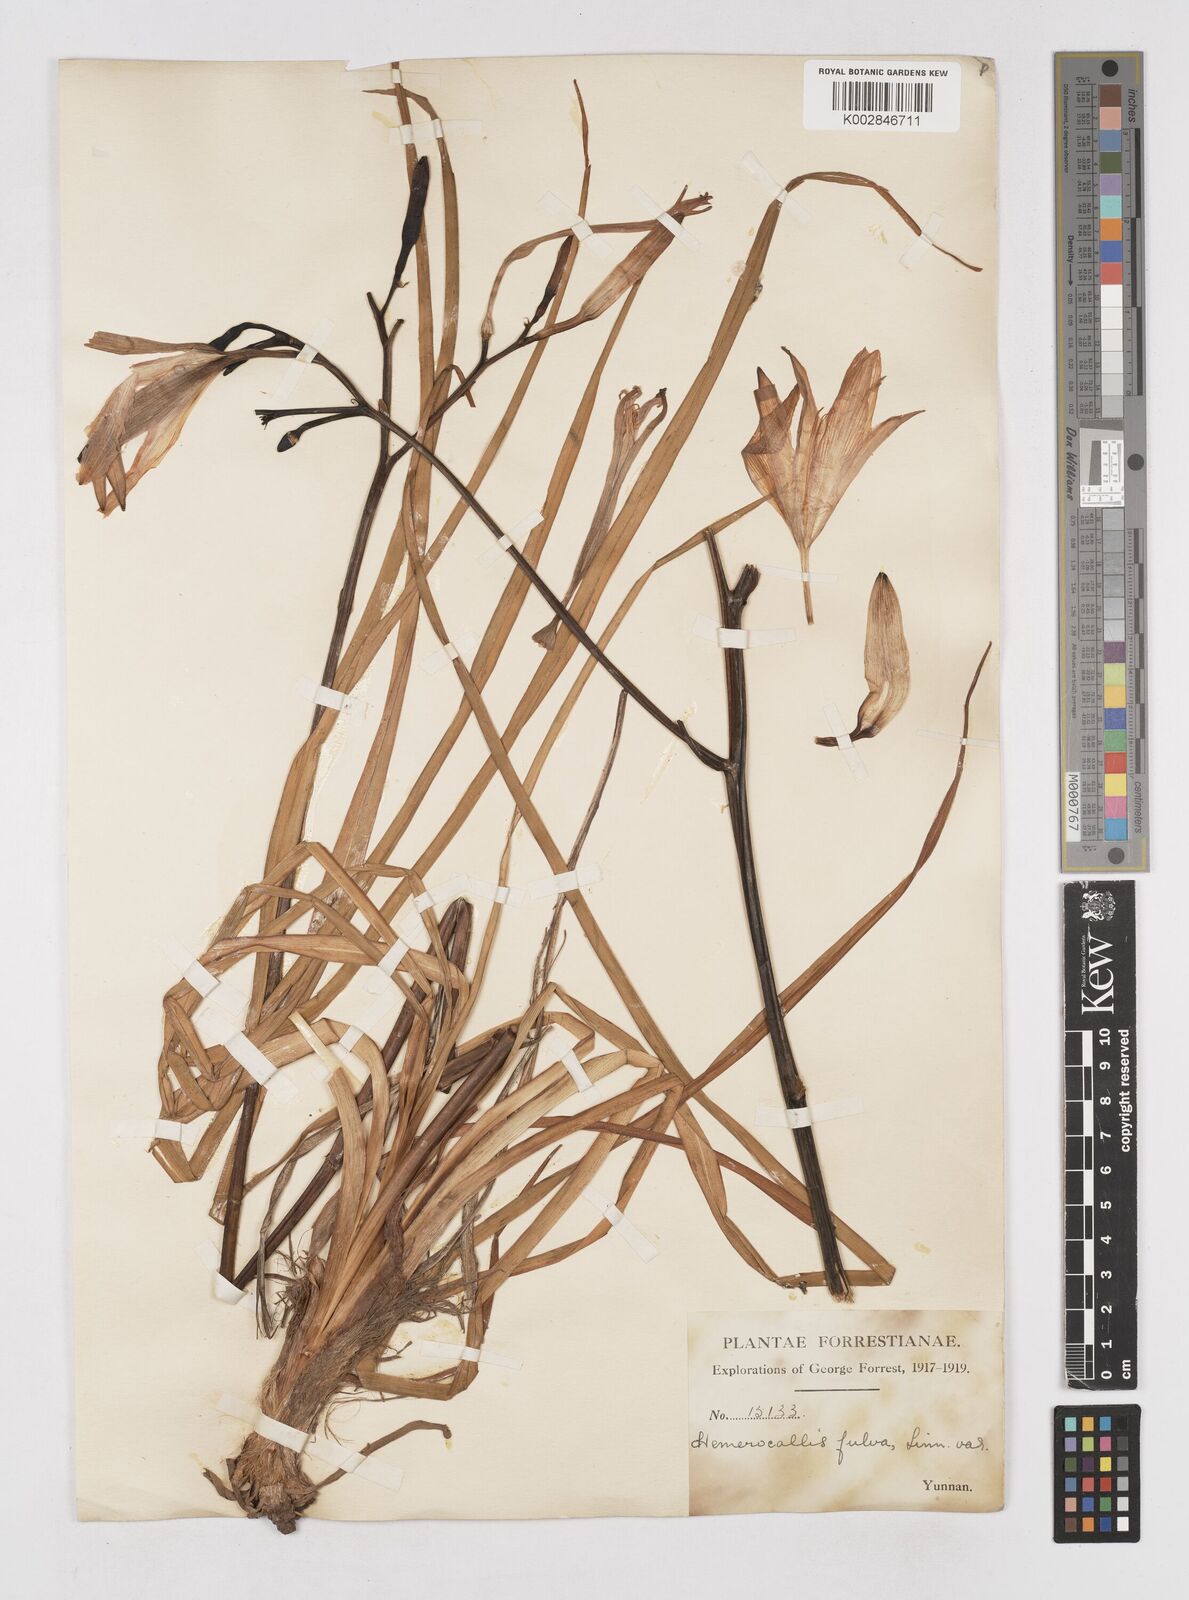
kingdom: Plantae
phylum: Tracheophyta
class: Liliopsida
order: Asparagales
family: Asphodelaceae
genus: Hemerocallis
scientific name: Hemerocallis
